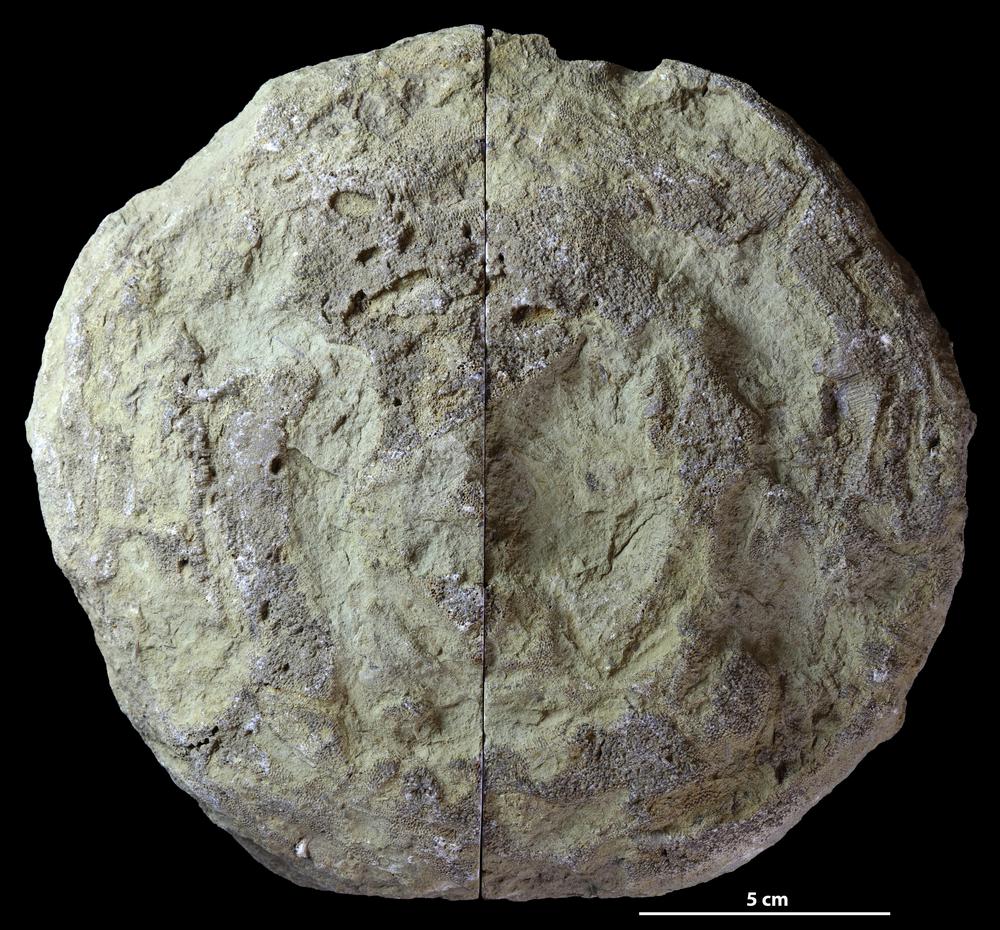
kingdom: Animalia
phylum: Bryozoa
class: Stenolaemata
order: Trepostomatida
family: Diplotrypidae
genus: Diplotrypa
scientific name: Diplotrypa
